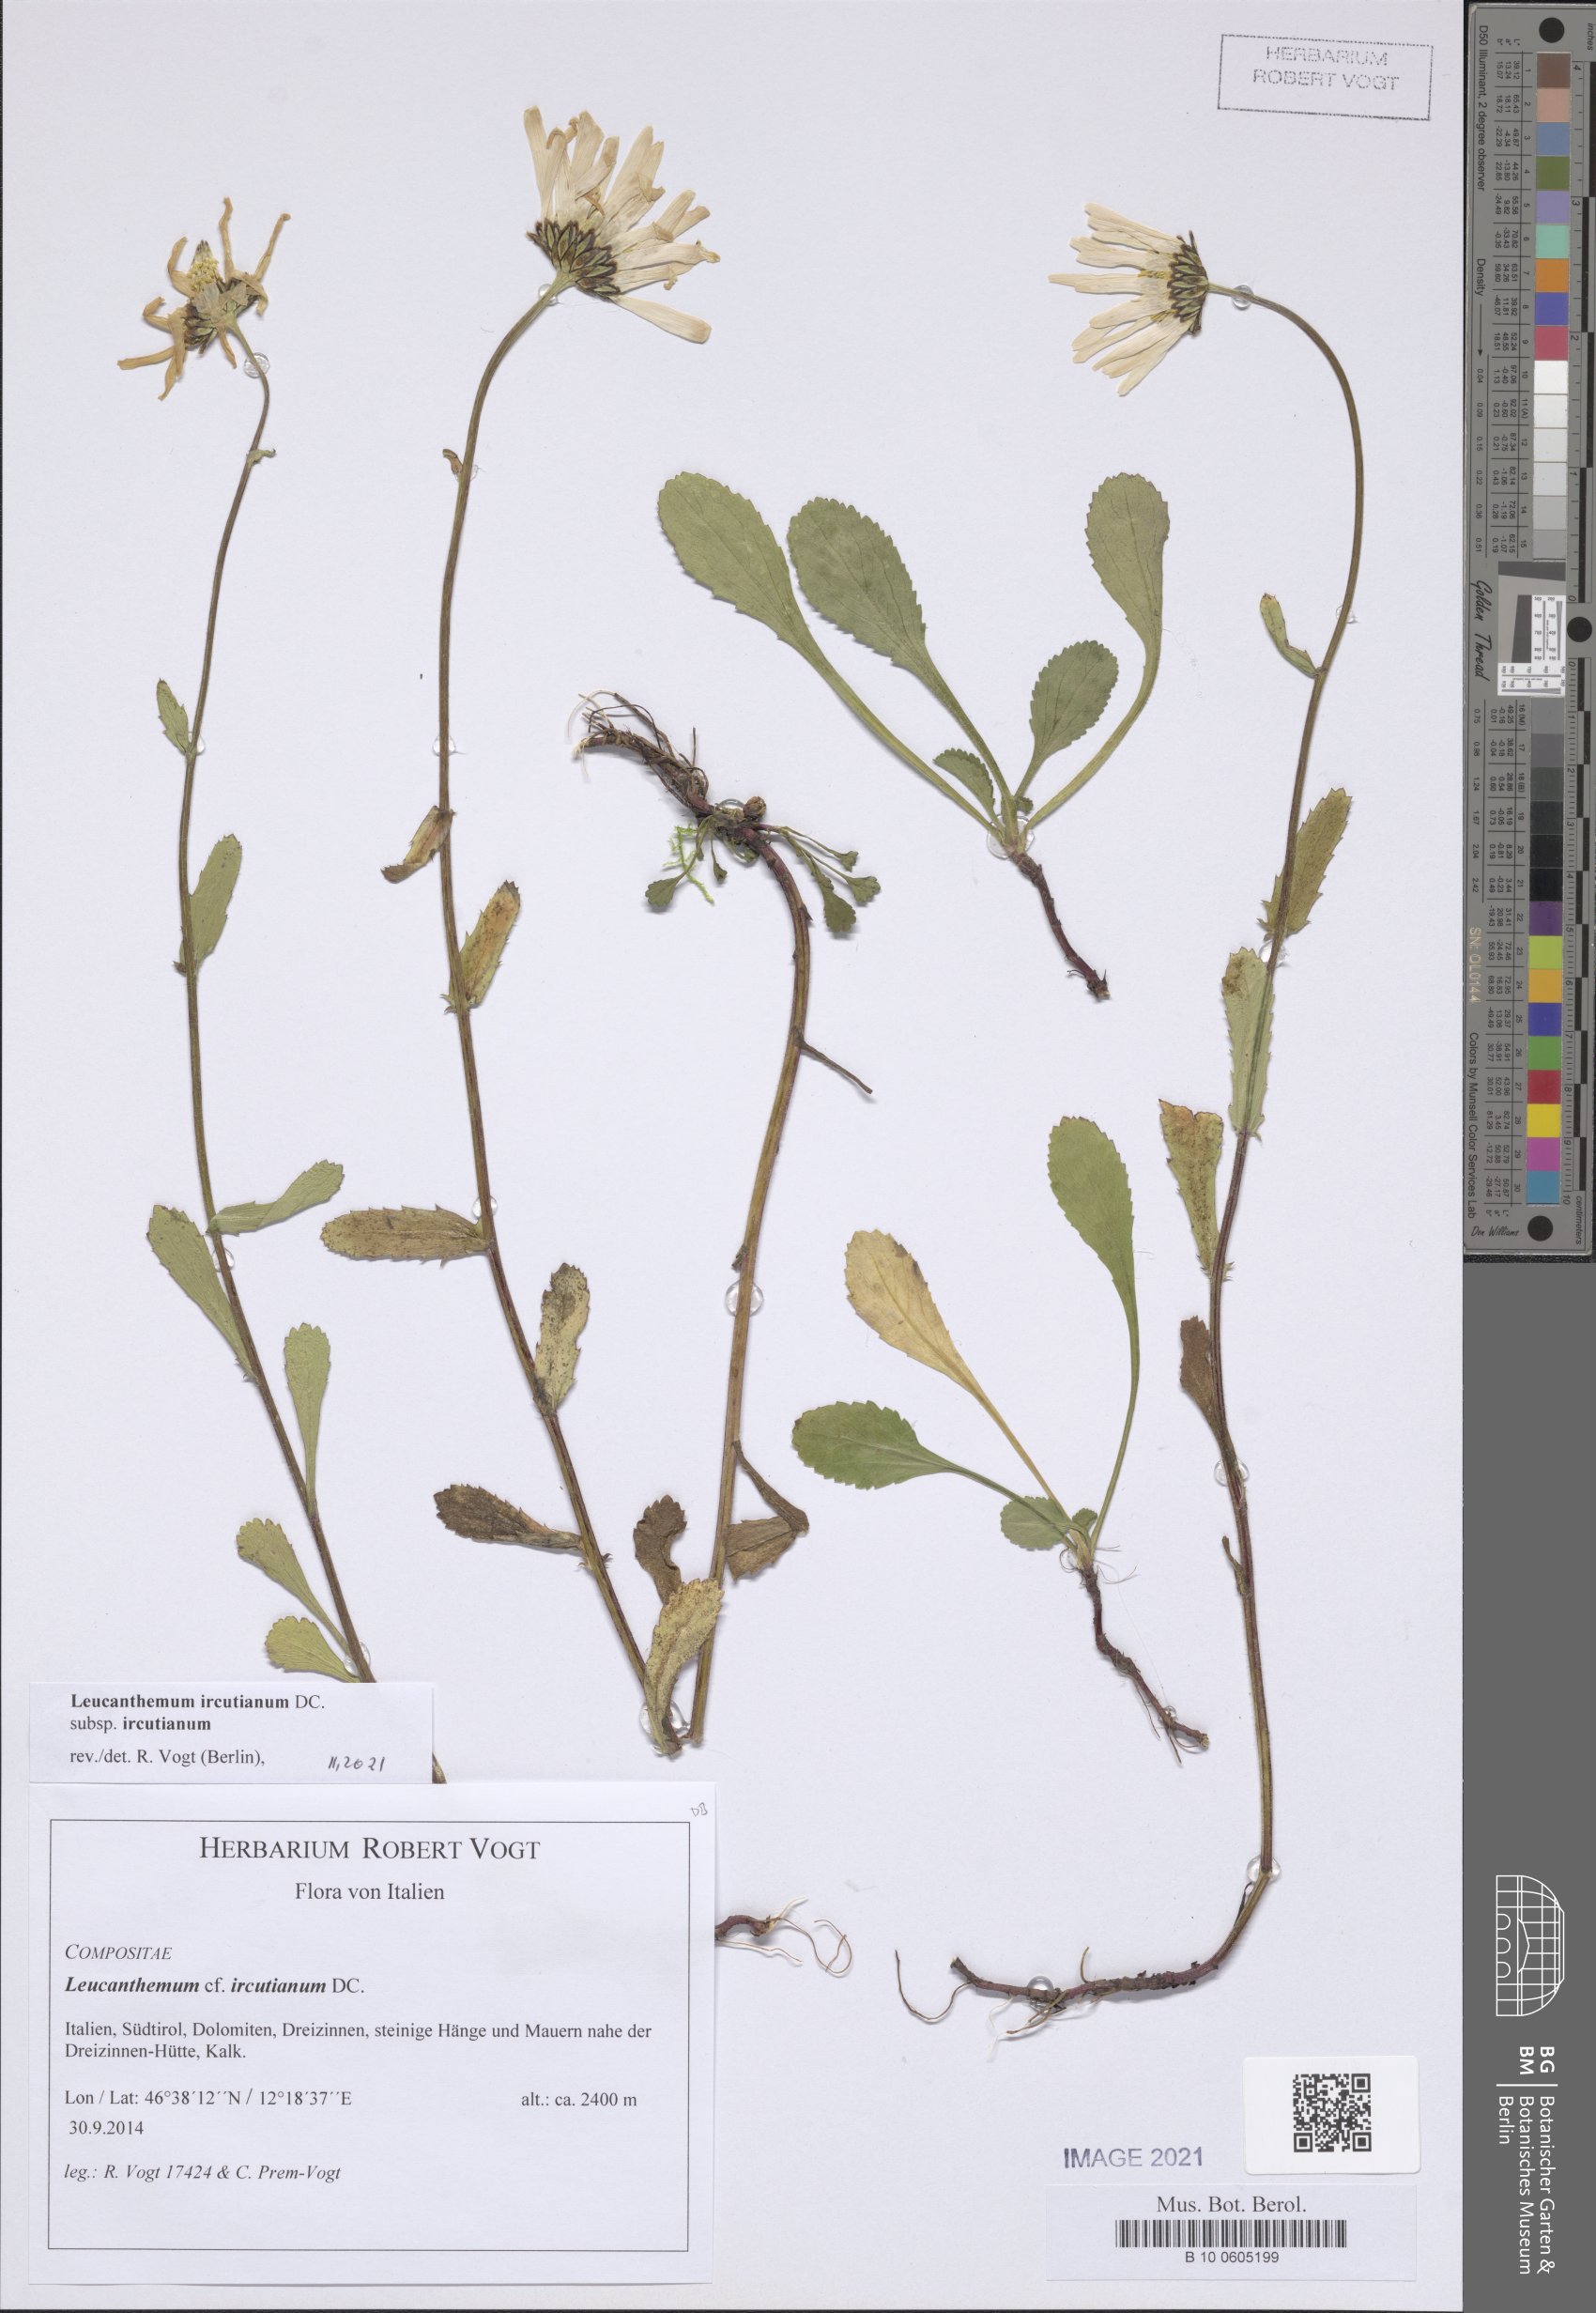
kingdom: Plantae
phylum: Tracheophyta
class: Magnoliopsida
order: Asterales
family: Asteraceae
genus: Leucanthemum
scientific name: Leucanthemum ircutianum
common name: Daisy
